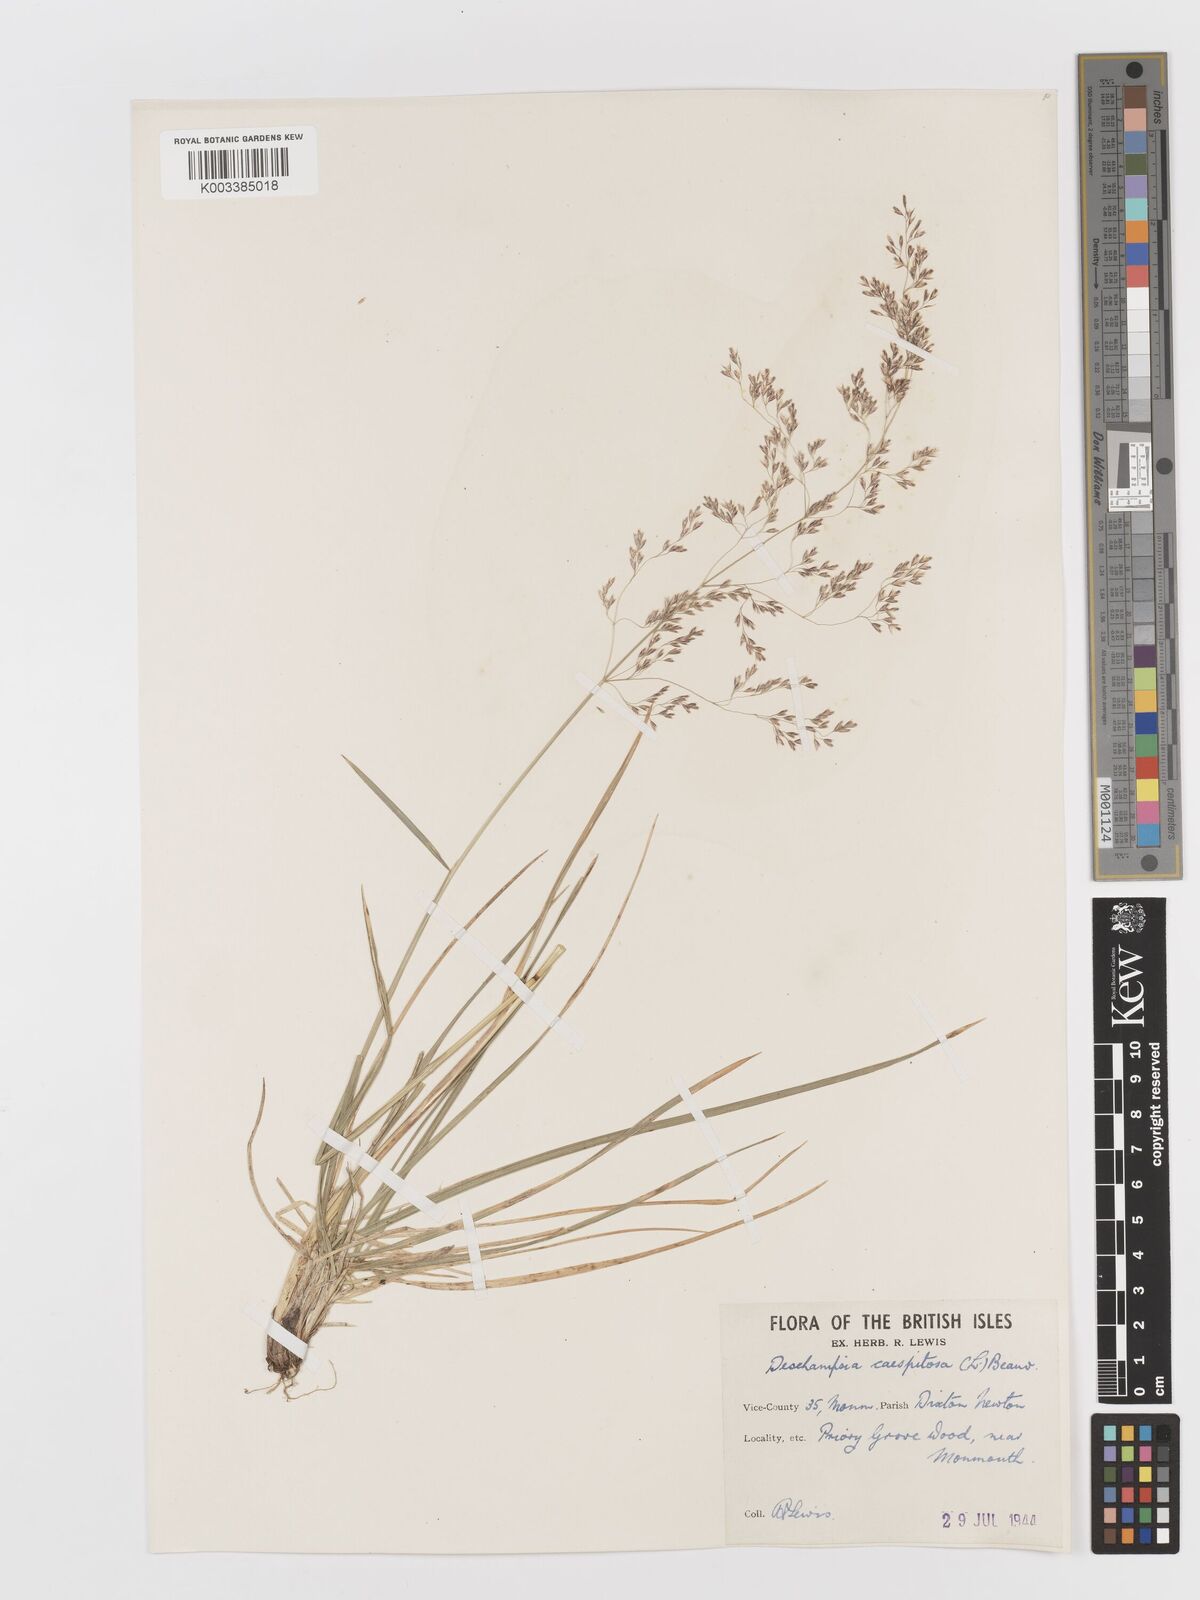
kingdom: Plantae
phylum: Tracheophyta
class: Liliopsida
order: Poales
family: Poaceae
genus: Deschampsia
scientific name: Deschampsia cespitosa
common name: Tufted hair-grass
